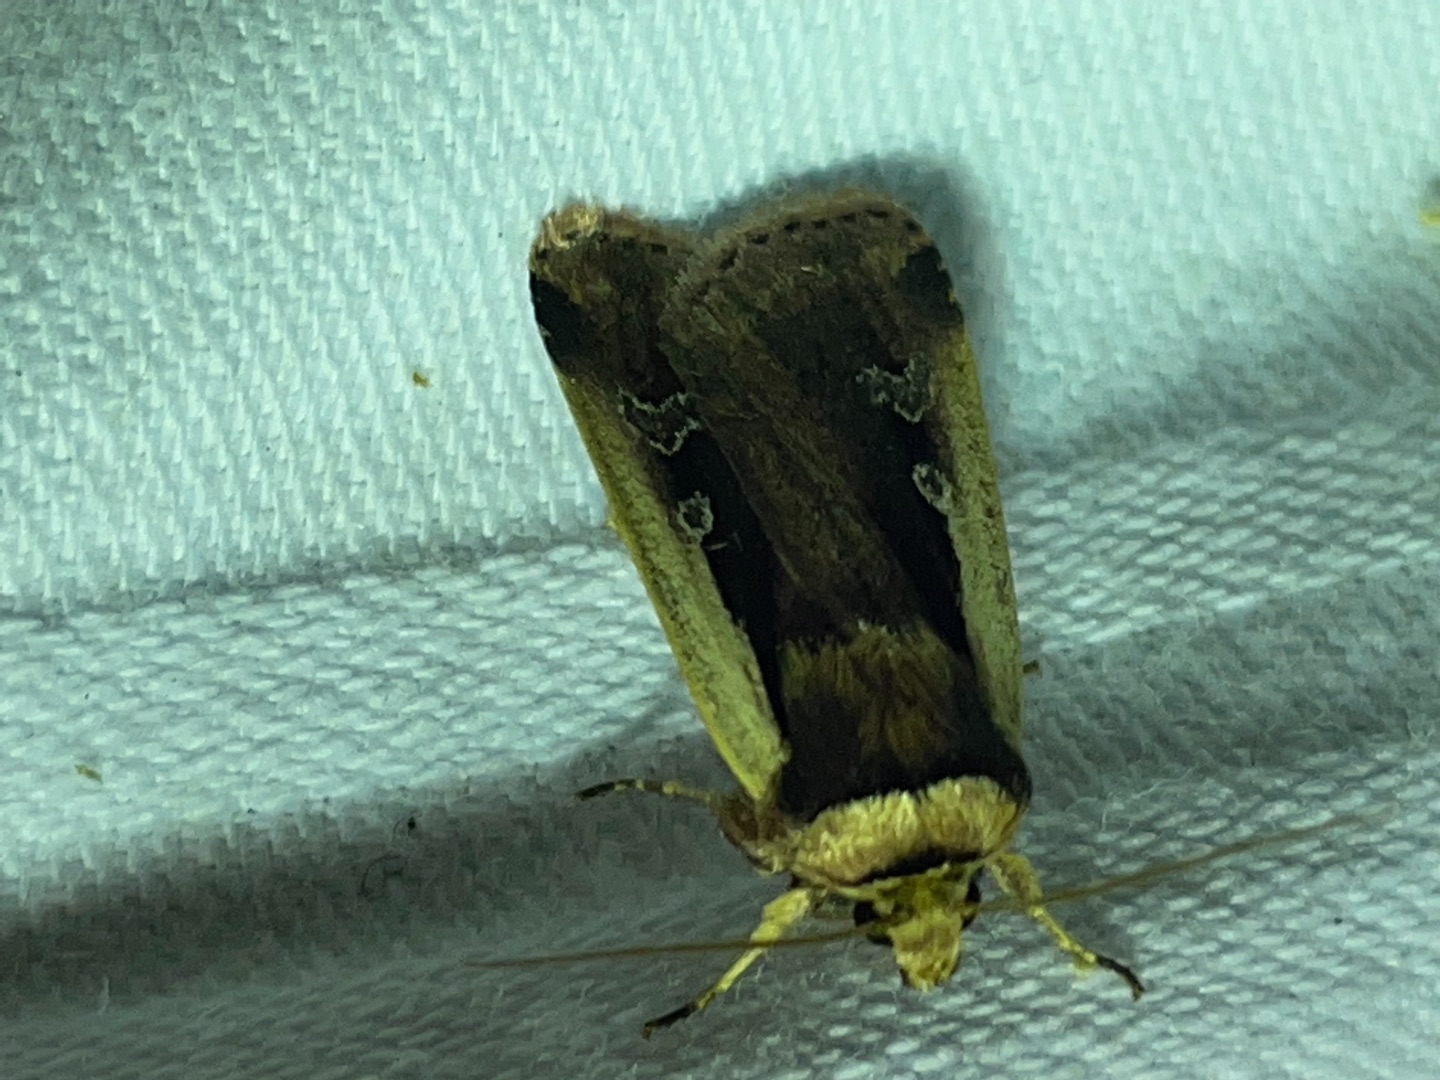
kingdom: Animalia
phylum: Arthropoda
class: Insecta
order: Lepidoptera
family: Noctuidae
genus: Ochropleura
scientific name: Ochropleura plecta
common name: Hvidrandet jordugle
